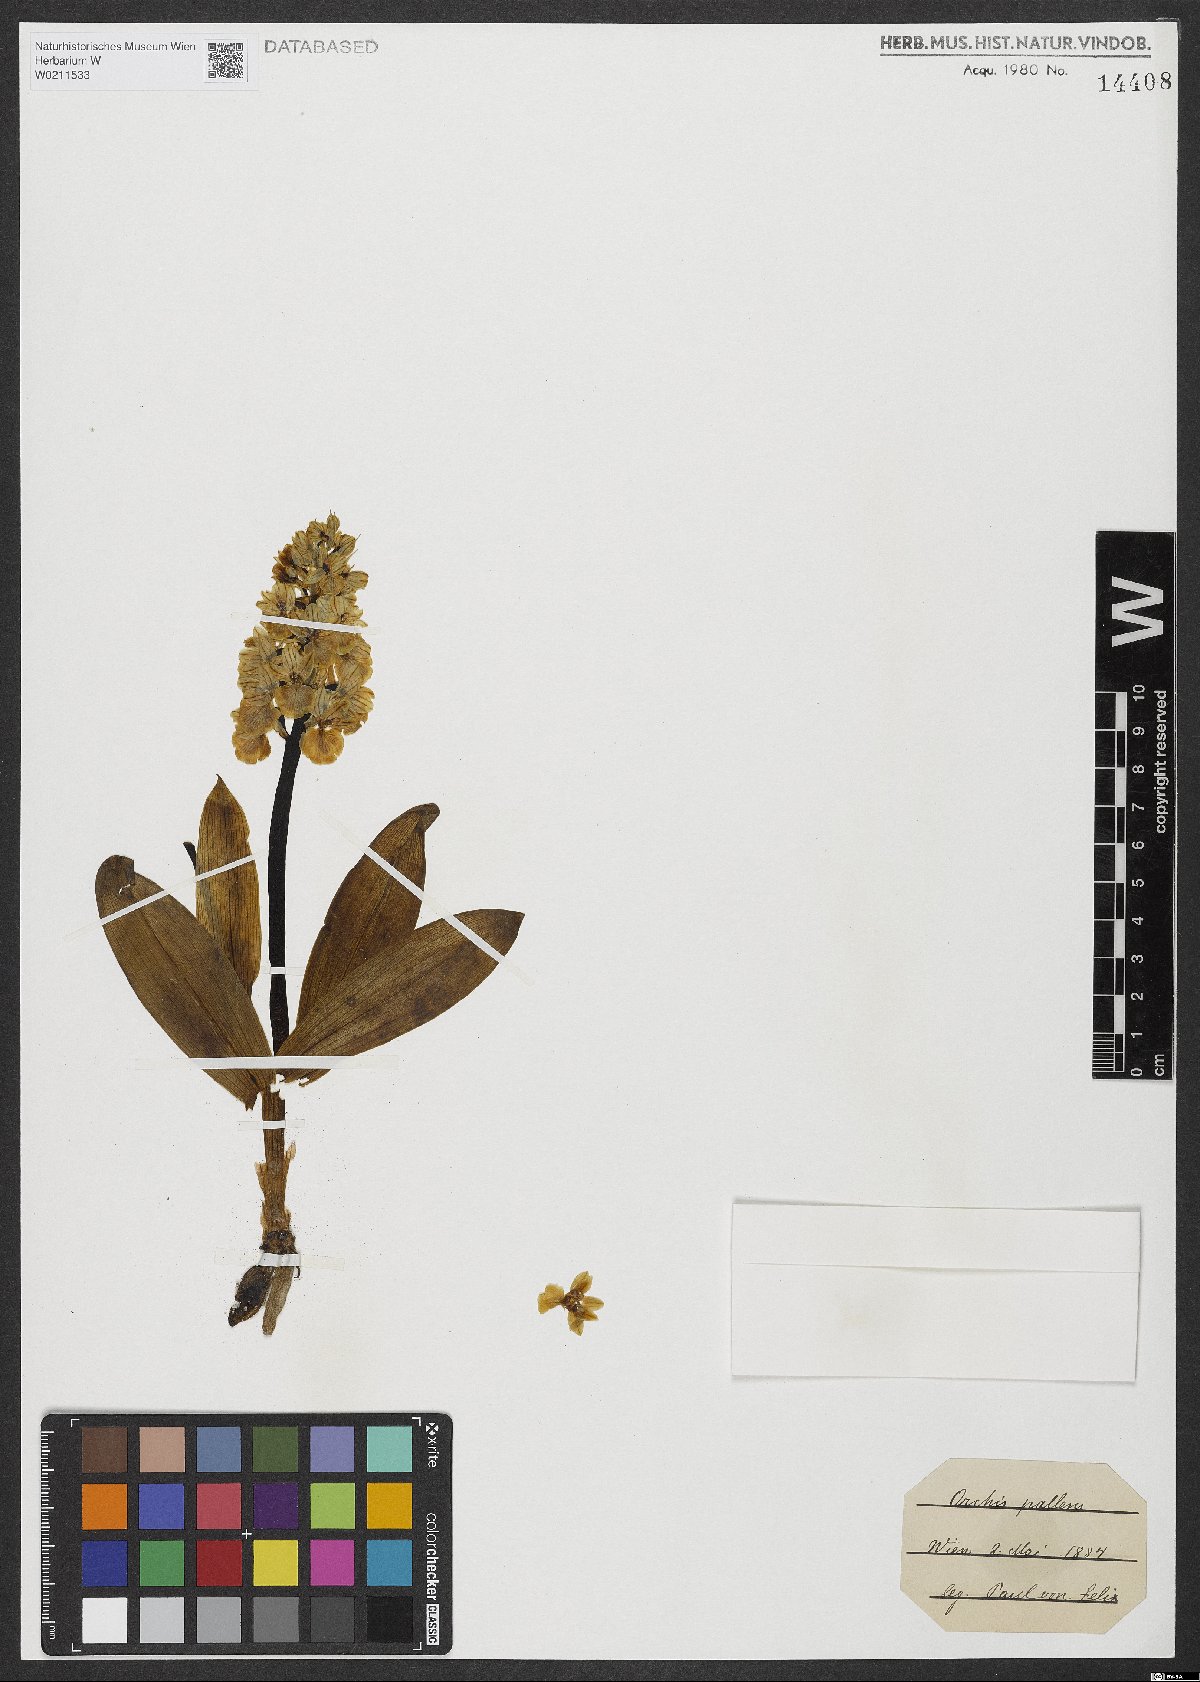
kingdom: Plantae
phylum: Tracheophyta
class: Liliopsida
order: Asparagales
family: Orchidaceae
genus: Orchis
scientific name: Orchis pallens
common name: Pale-flowered orchid
